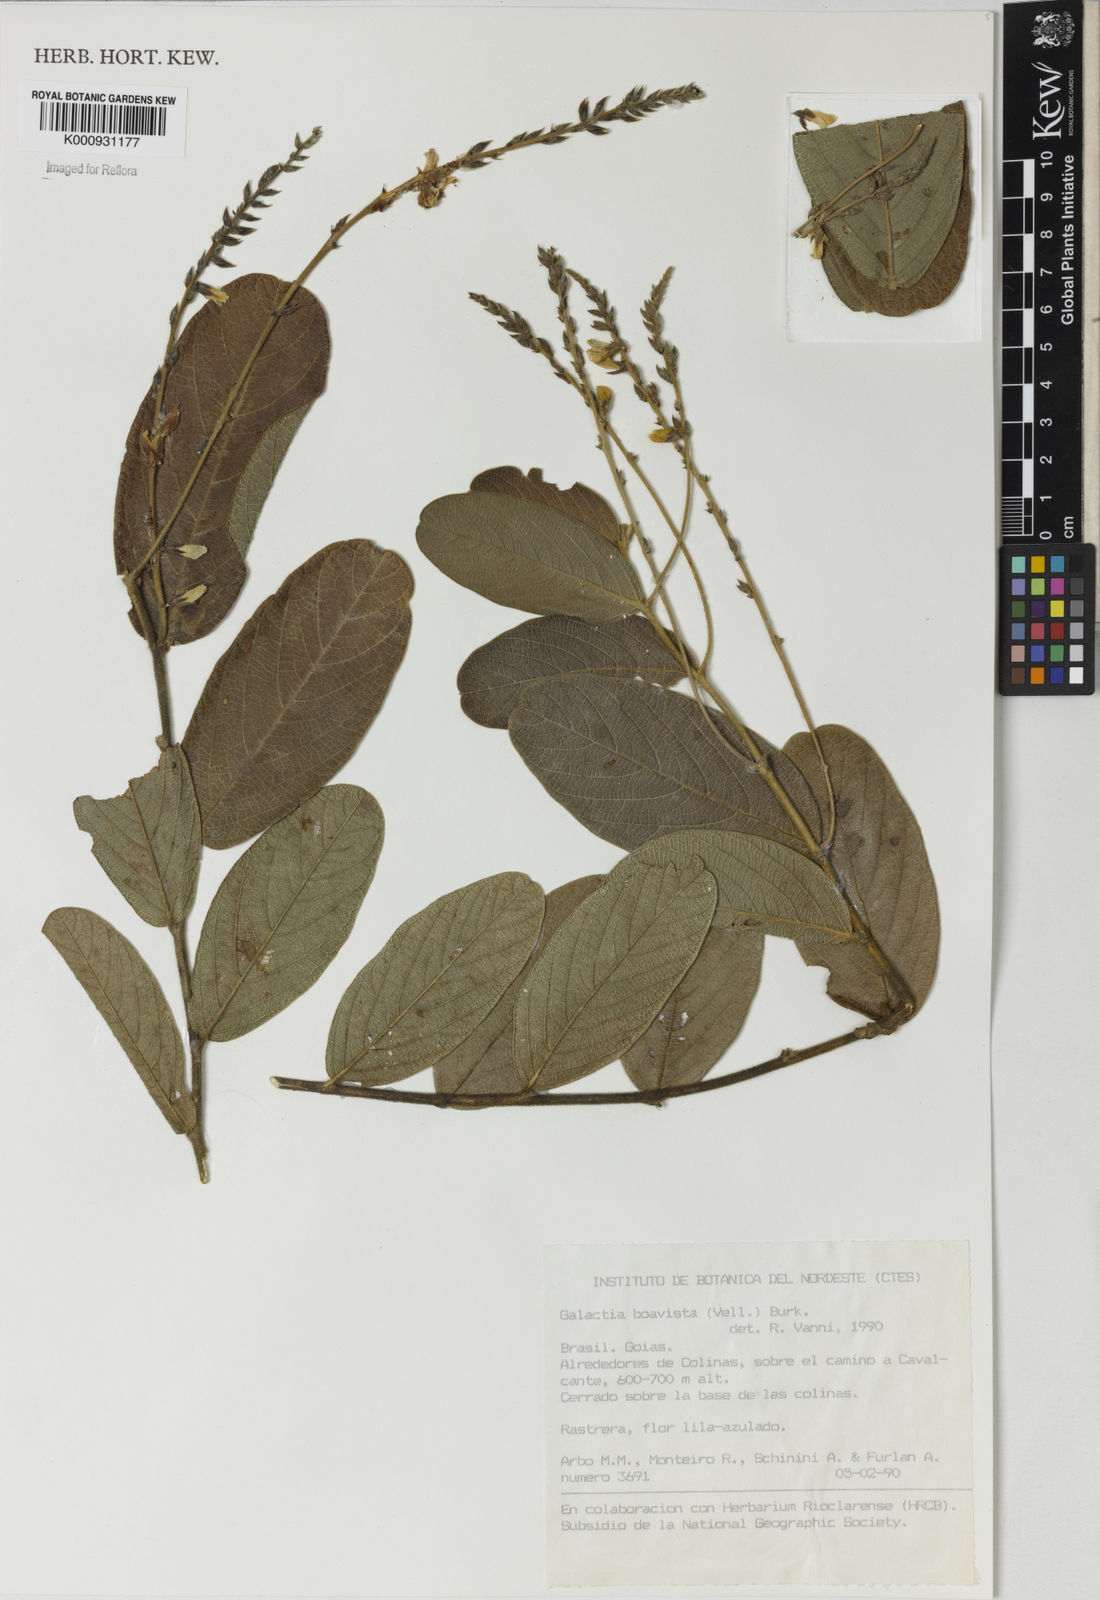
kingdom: Plantae
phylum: Tracheophyta
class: Magnoliopsida
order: Fabales
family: Fabaceae
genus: Cerradicola
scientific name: Cerradicola boavista
